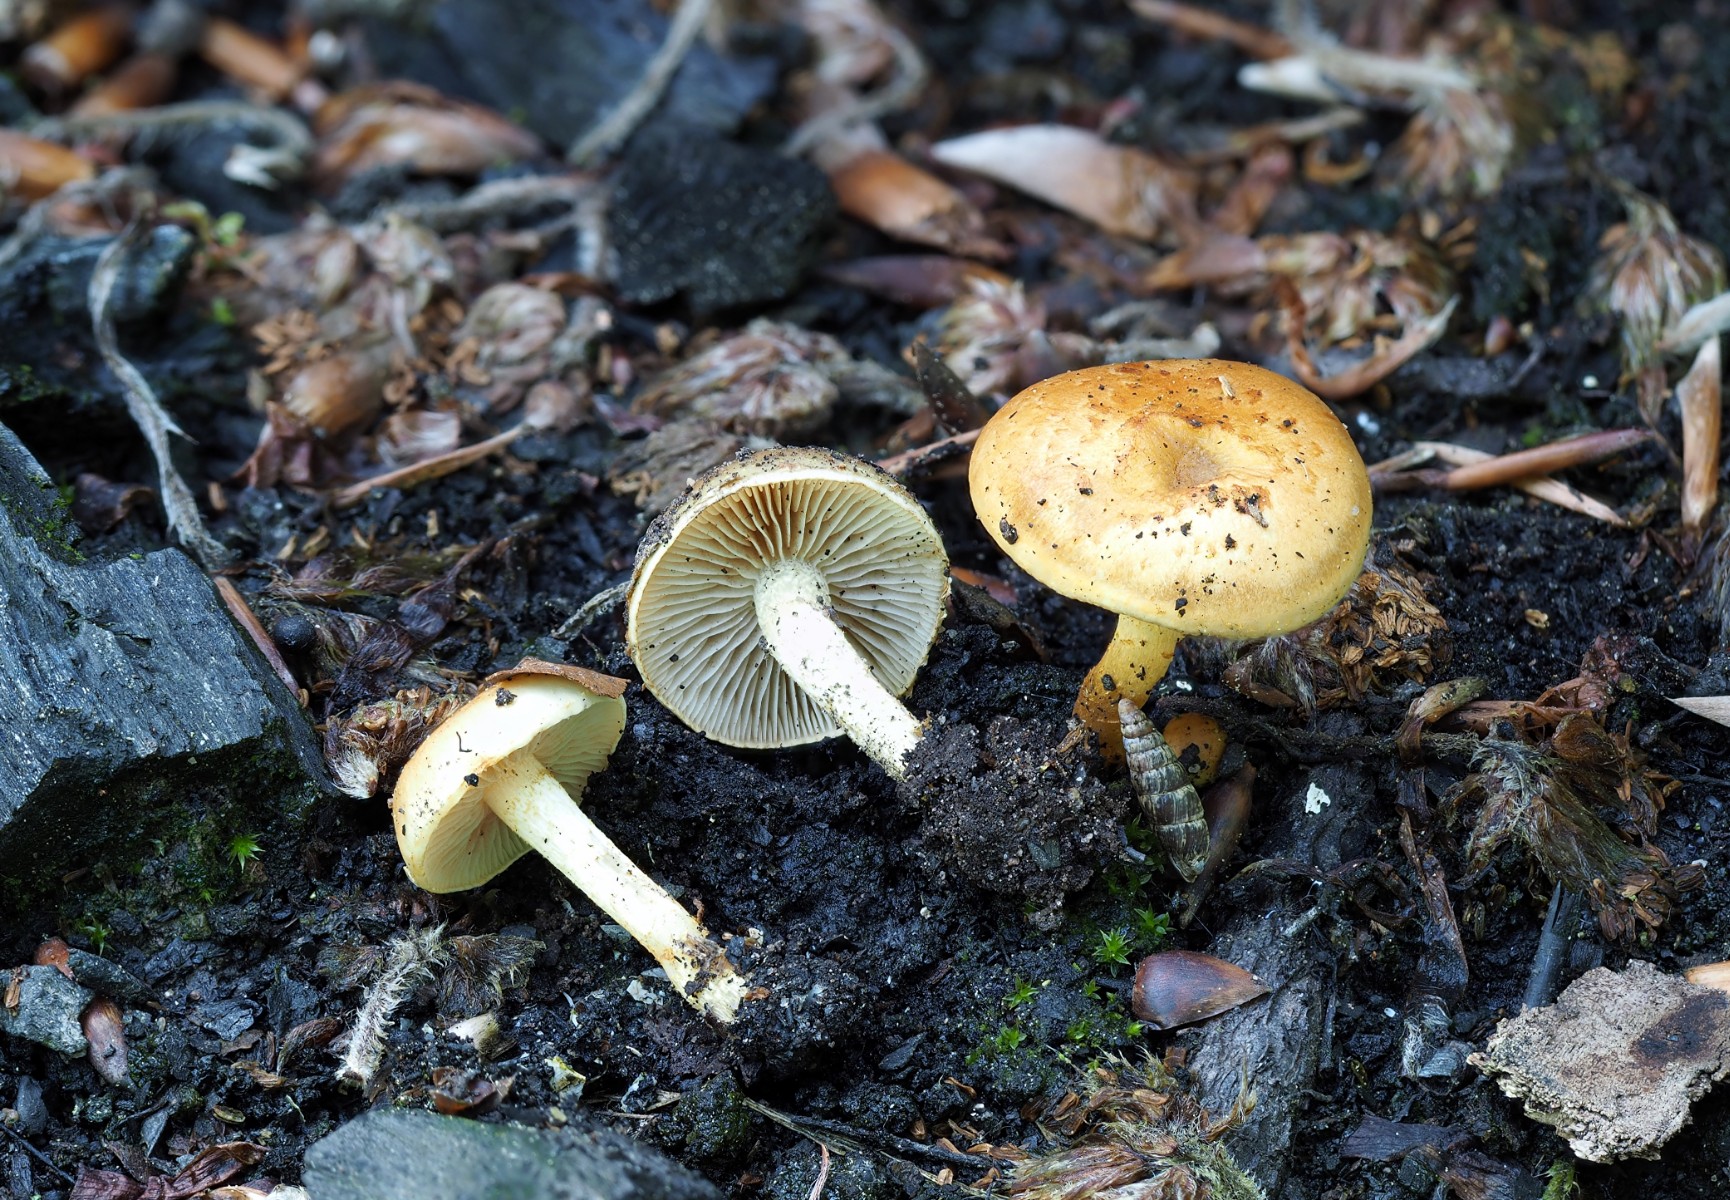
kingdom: Fungi
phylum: Basidiomycota
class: Agaricomycetes
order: Agaricales
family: Strophariaceae
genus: Pholiota
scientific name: Pholiota carbonaria
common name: kul-skælhat
